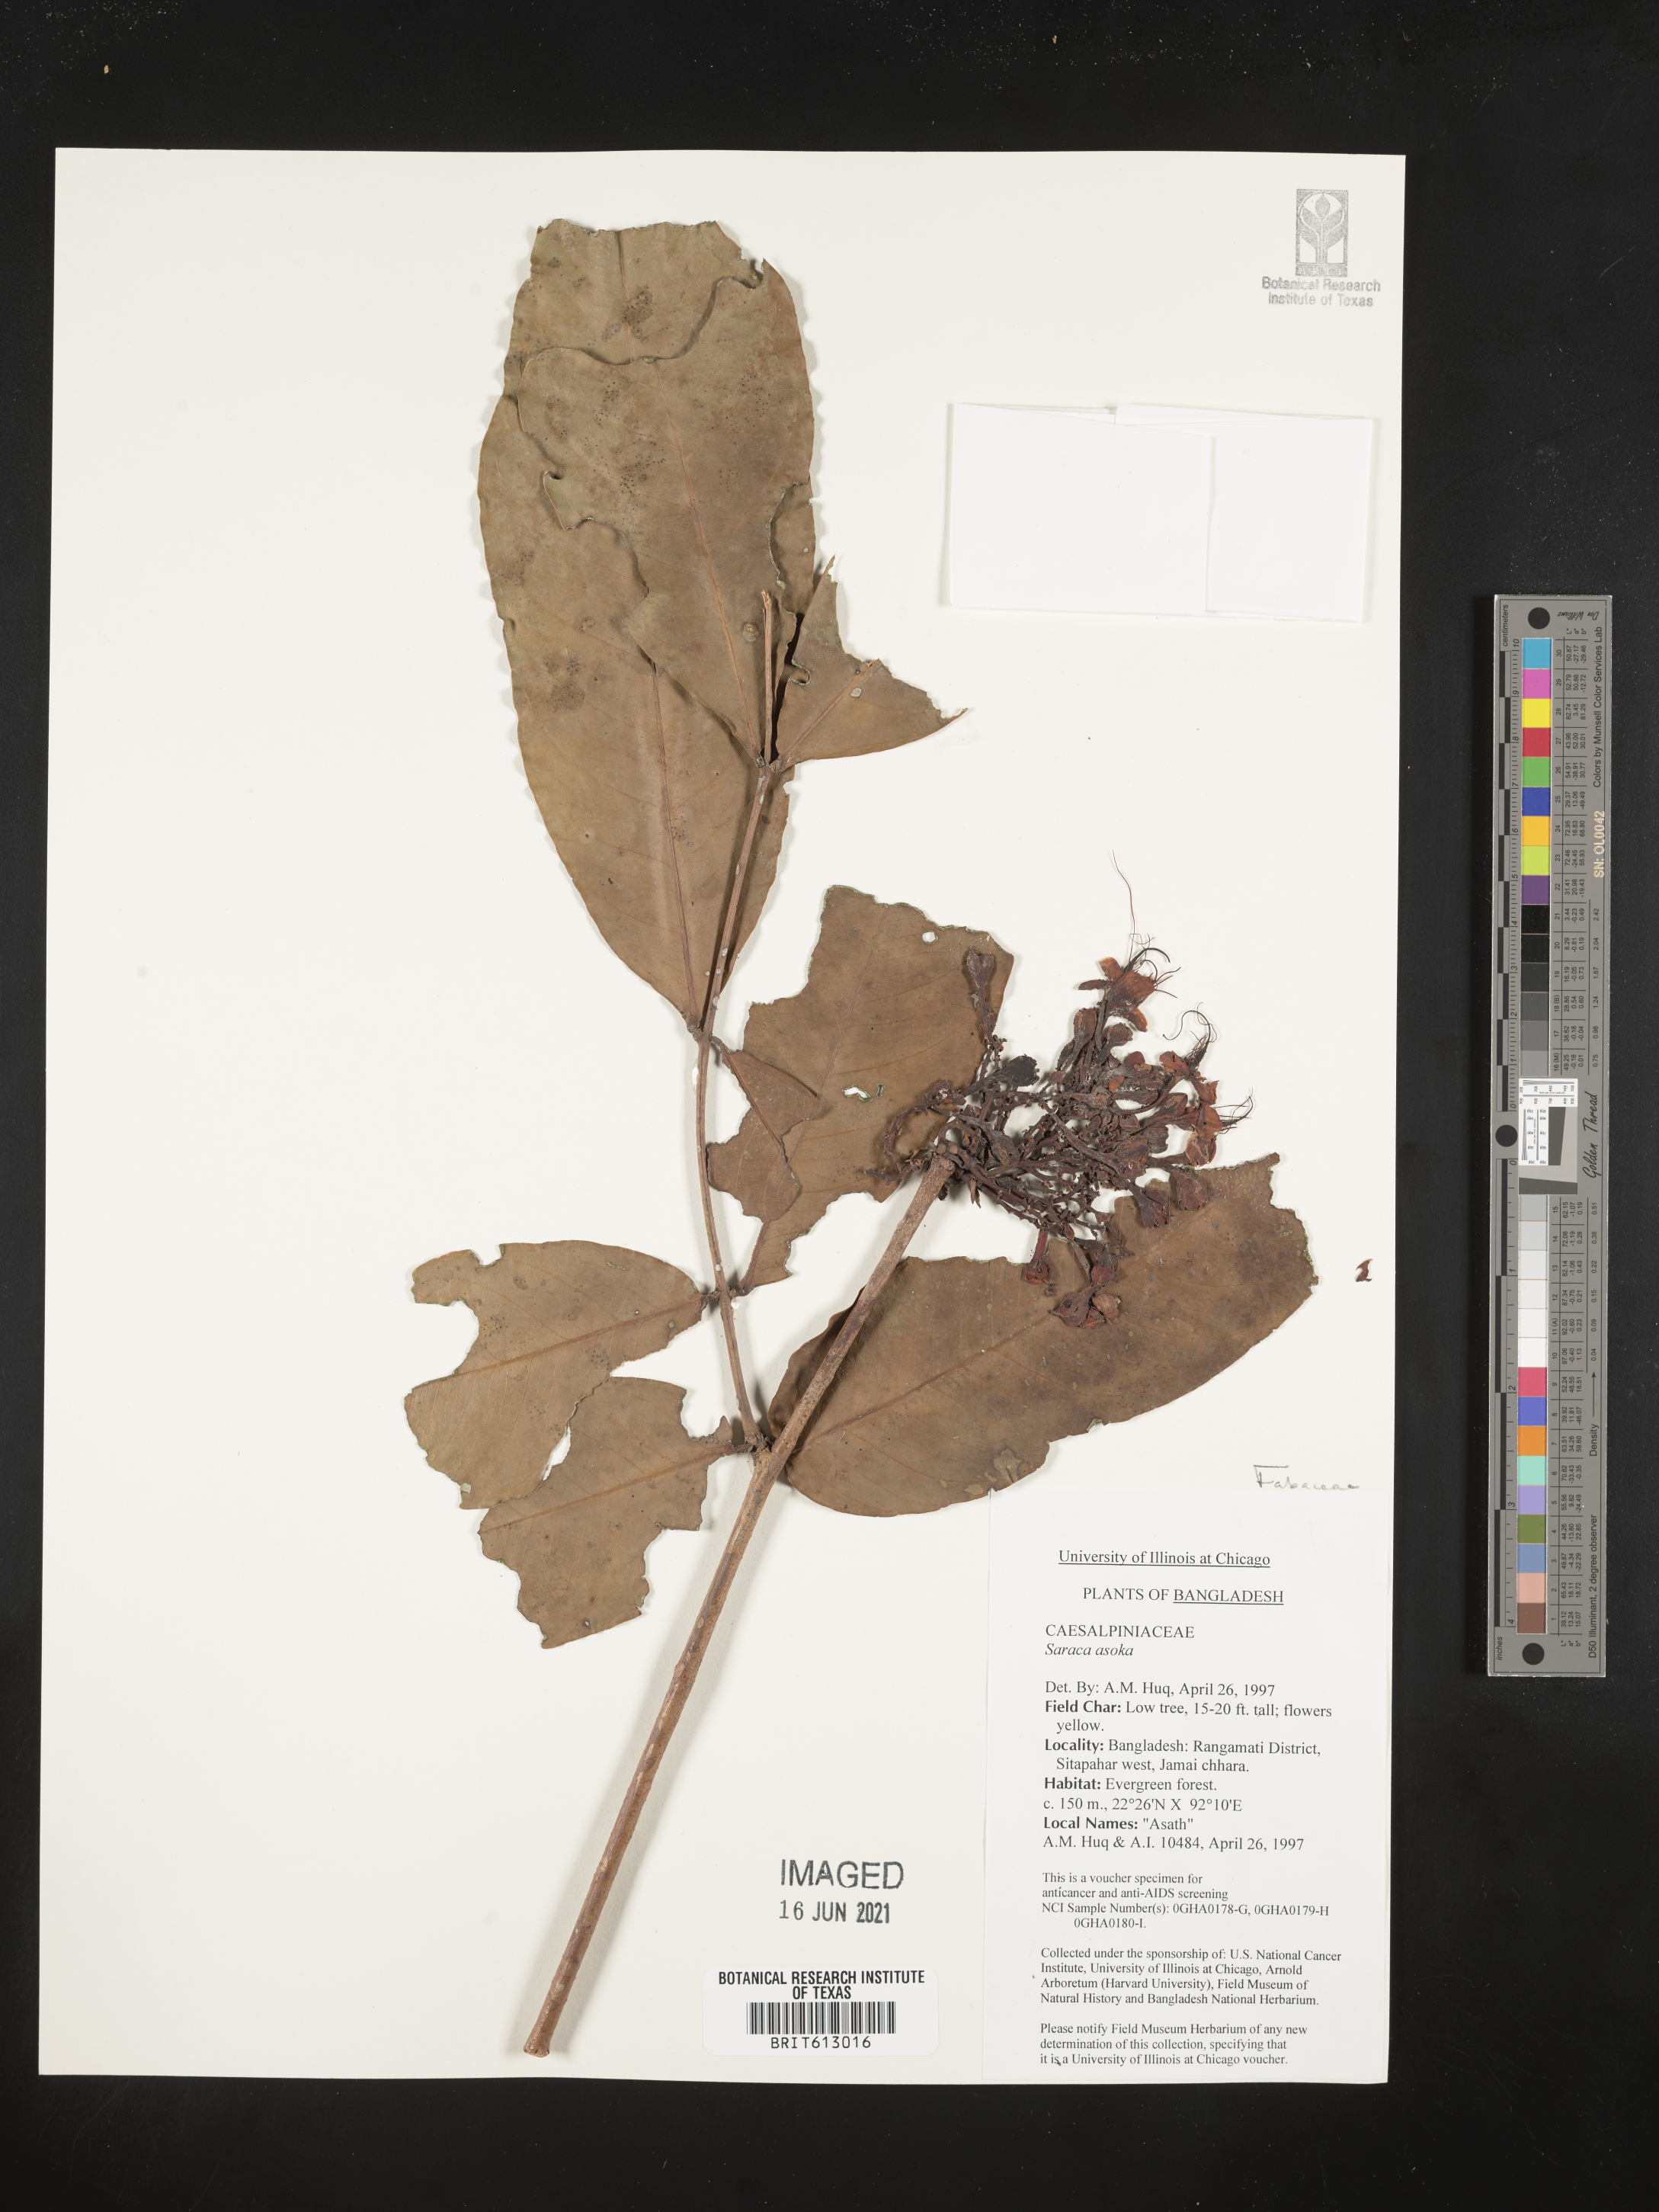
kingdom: Plantae
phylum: Tracheophyta
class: Magnoliopsida
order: Fabales
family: Fabaceae
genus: Saraca
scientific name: Saraca asoca
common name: Asoka-tree
